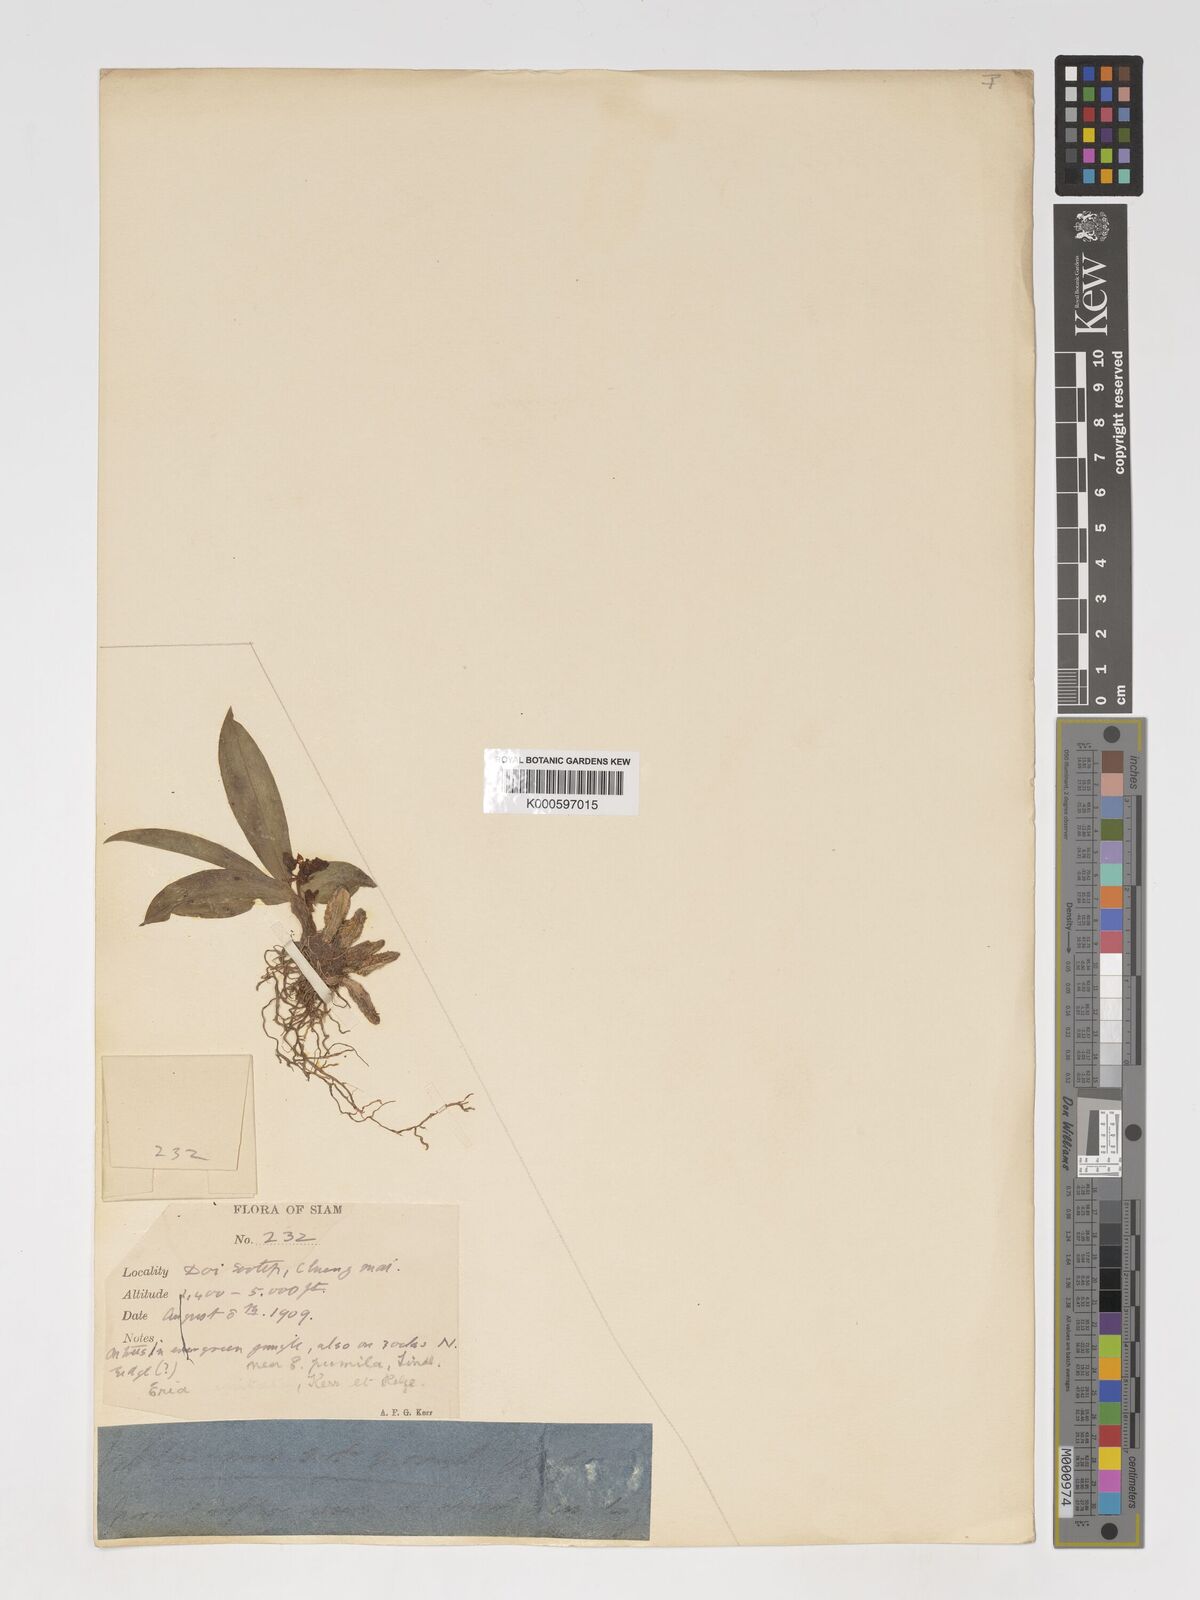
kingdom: Plantae
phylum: Tracheophyta
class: Liliopsida
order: Asparagales
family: Orchidaceae
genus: Pinalia
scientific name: Pinalia spicata
